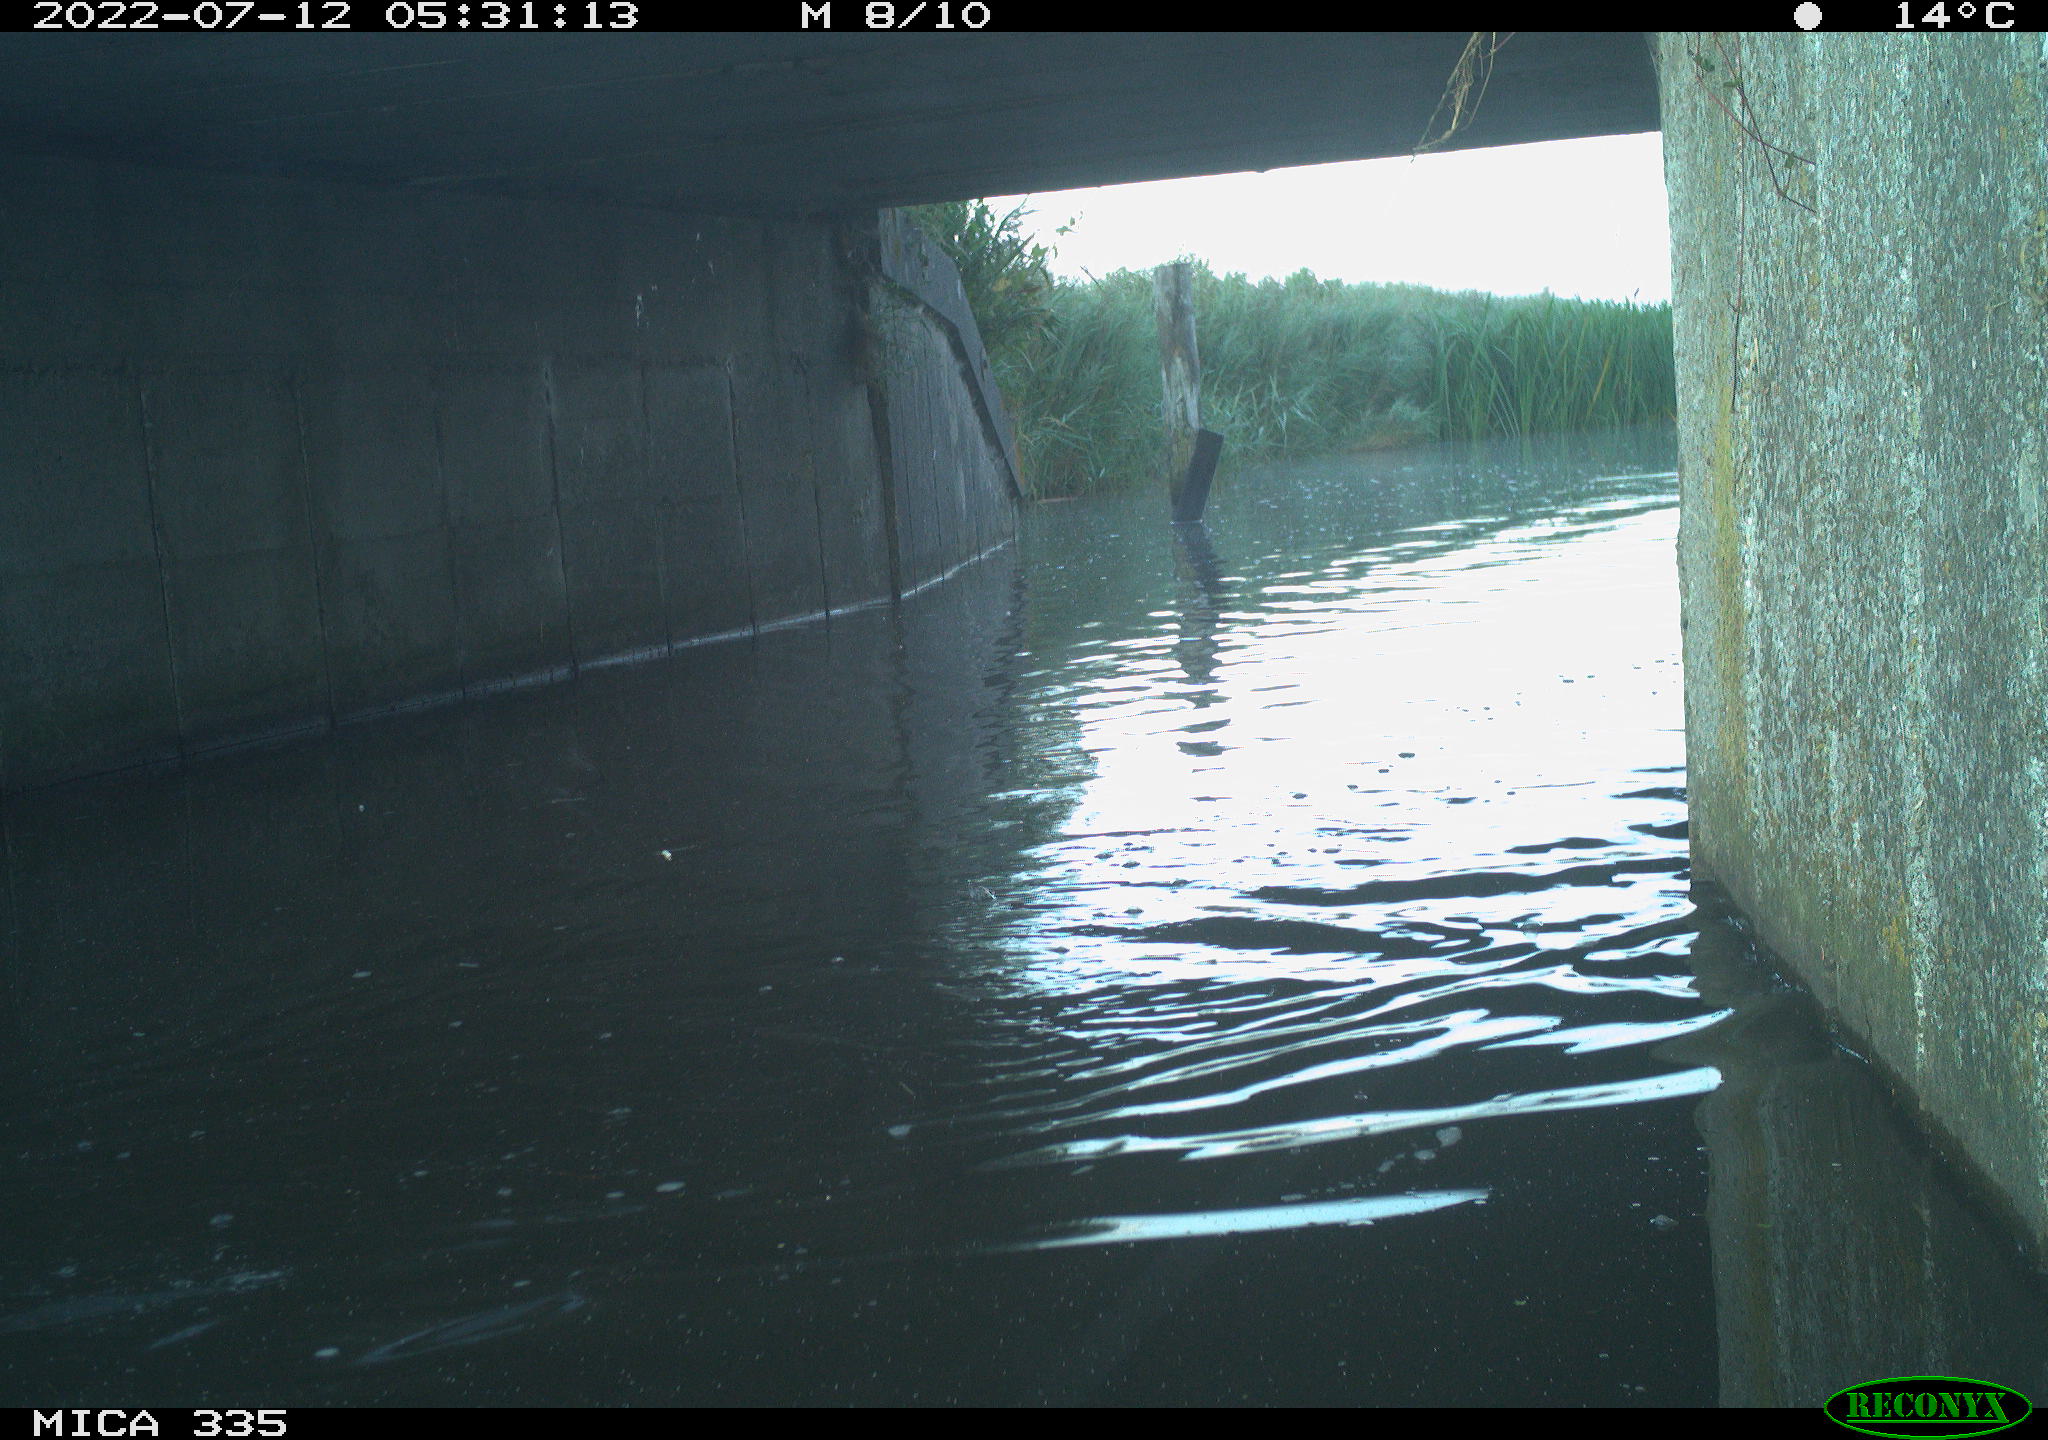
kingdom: Animalia
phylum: Chordata
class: Aves
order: Anseriformes
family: Anatidae
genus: Anas
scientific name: Anas platyrhynchos
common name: Mallard
